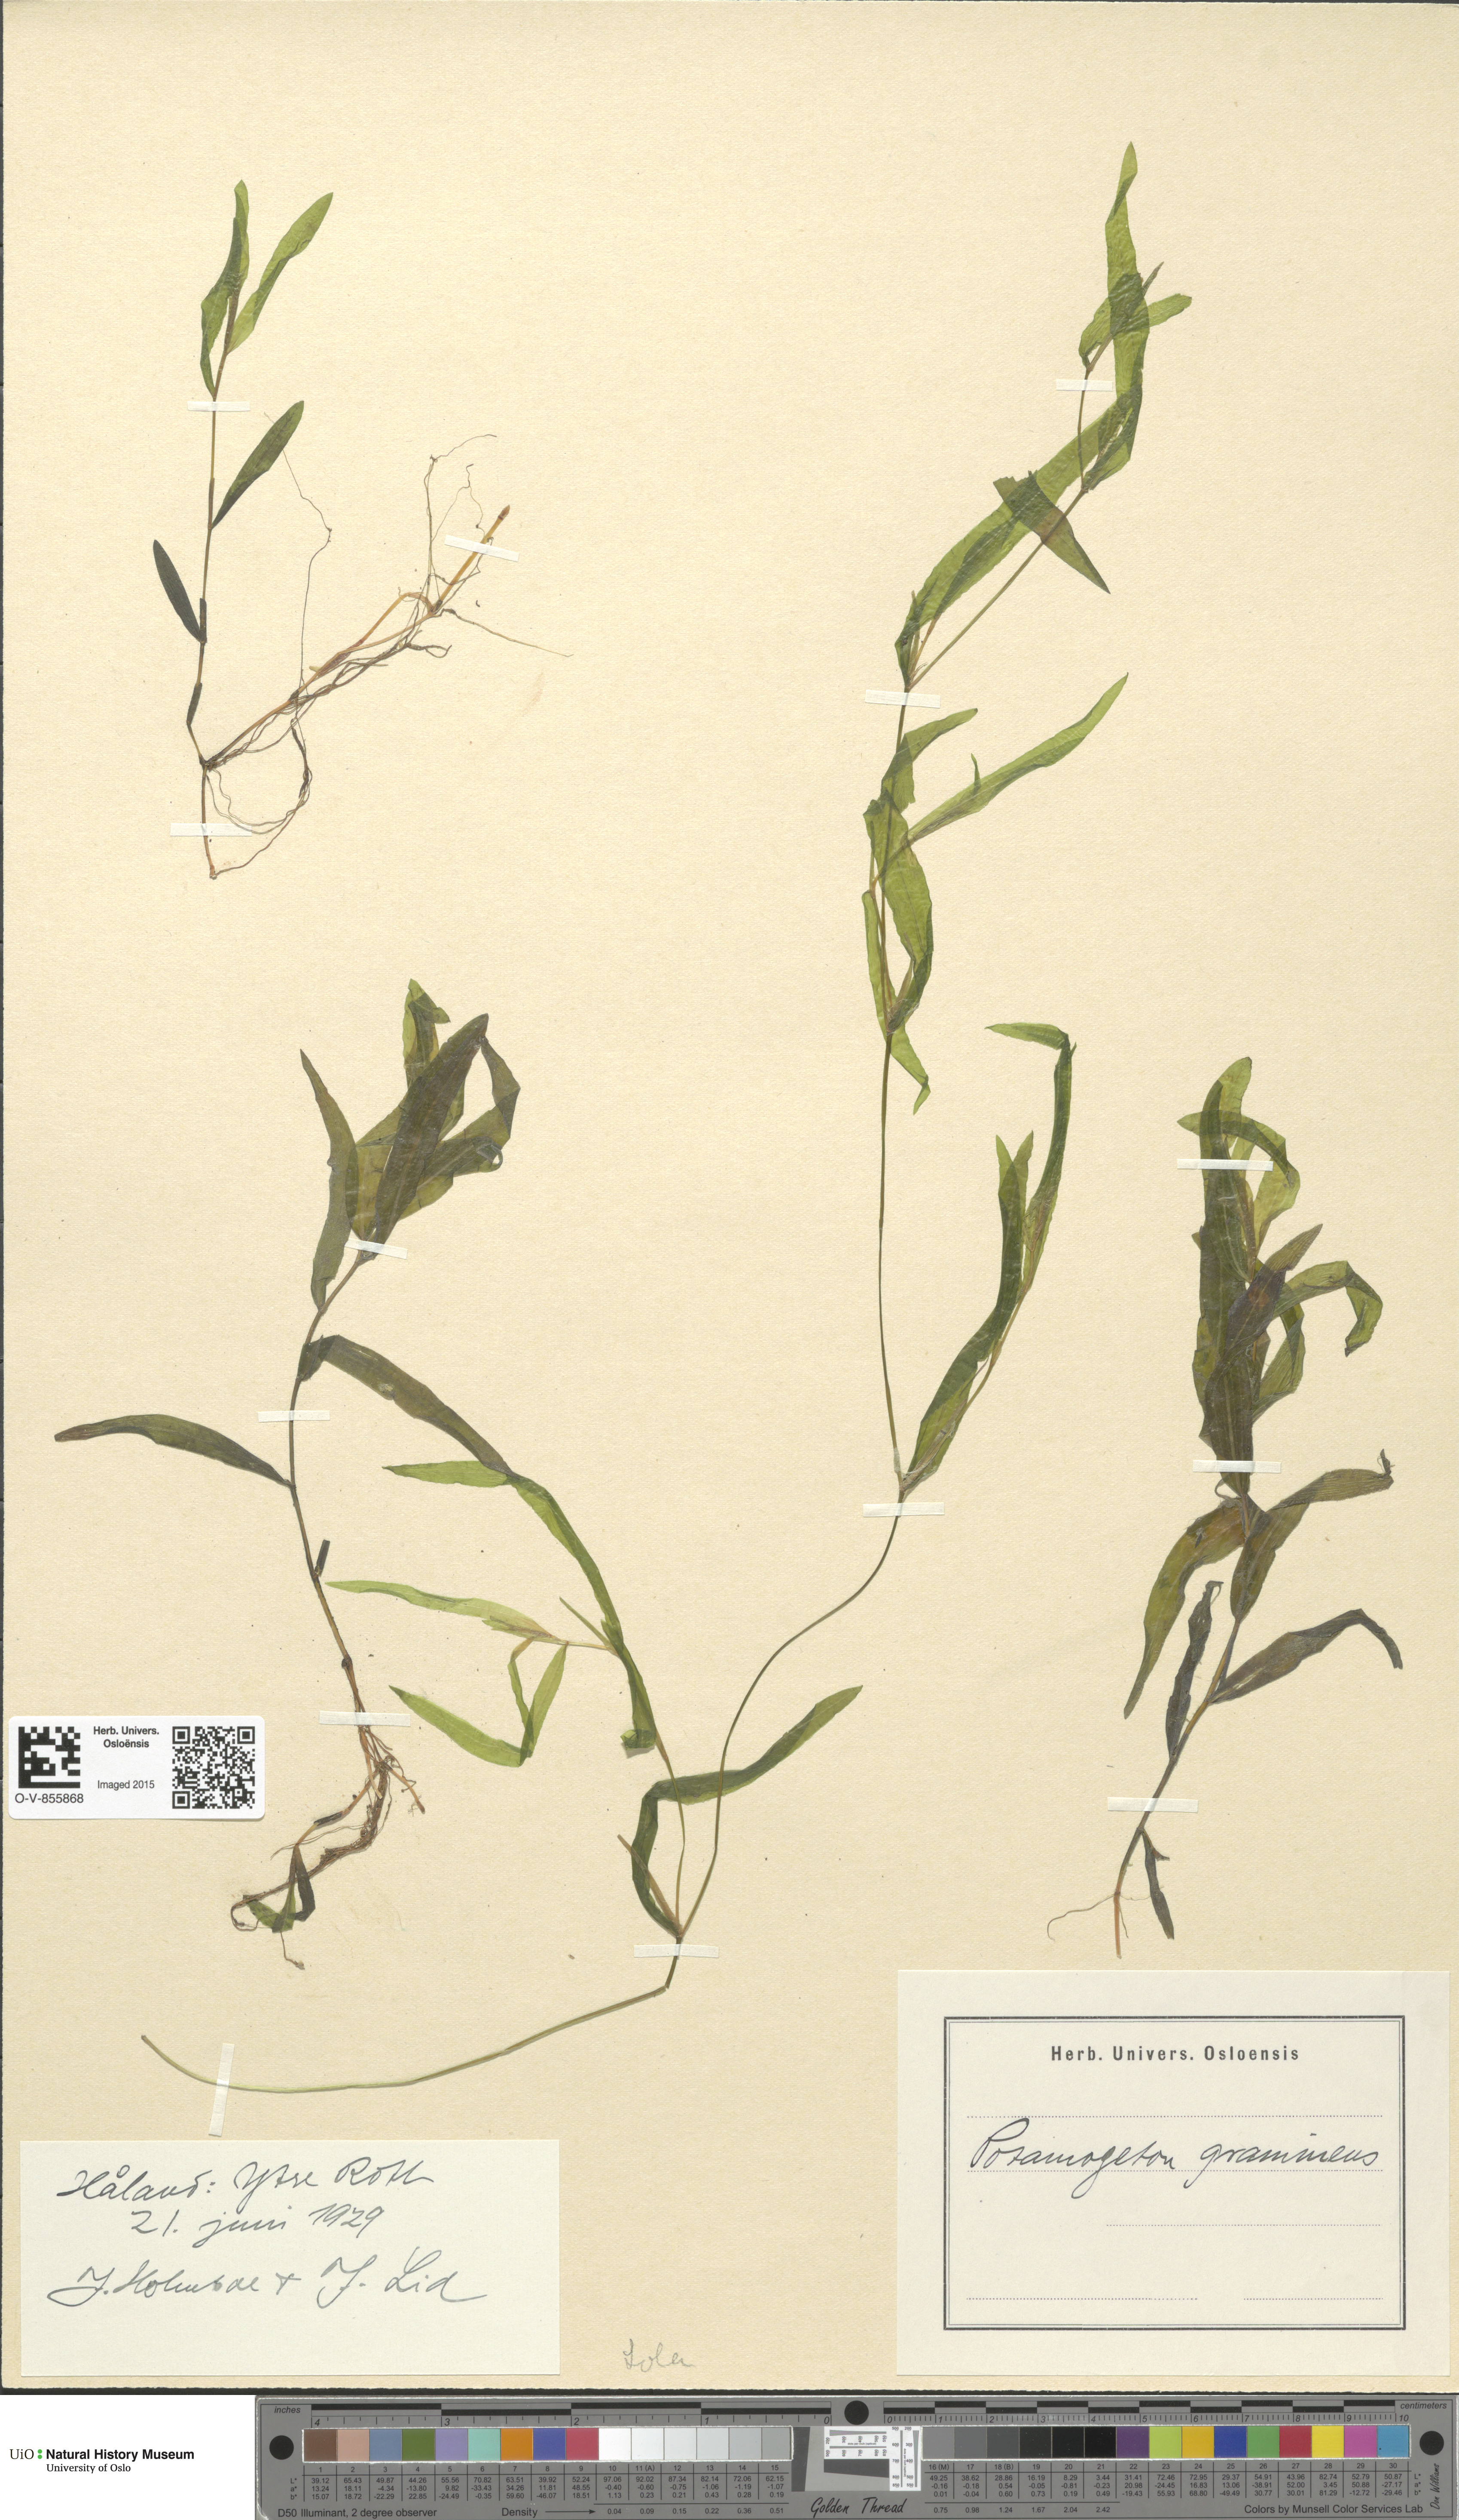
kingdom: Plantae
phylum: Tracheophyta
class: Liliopsida
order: Alismatales
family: Potamogetonaceae
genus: Potamogeton
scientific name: Potamogeton gramineus
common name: Various-leaved pondweed
